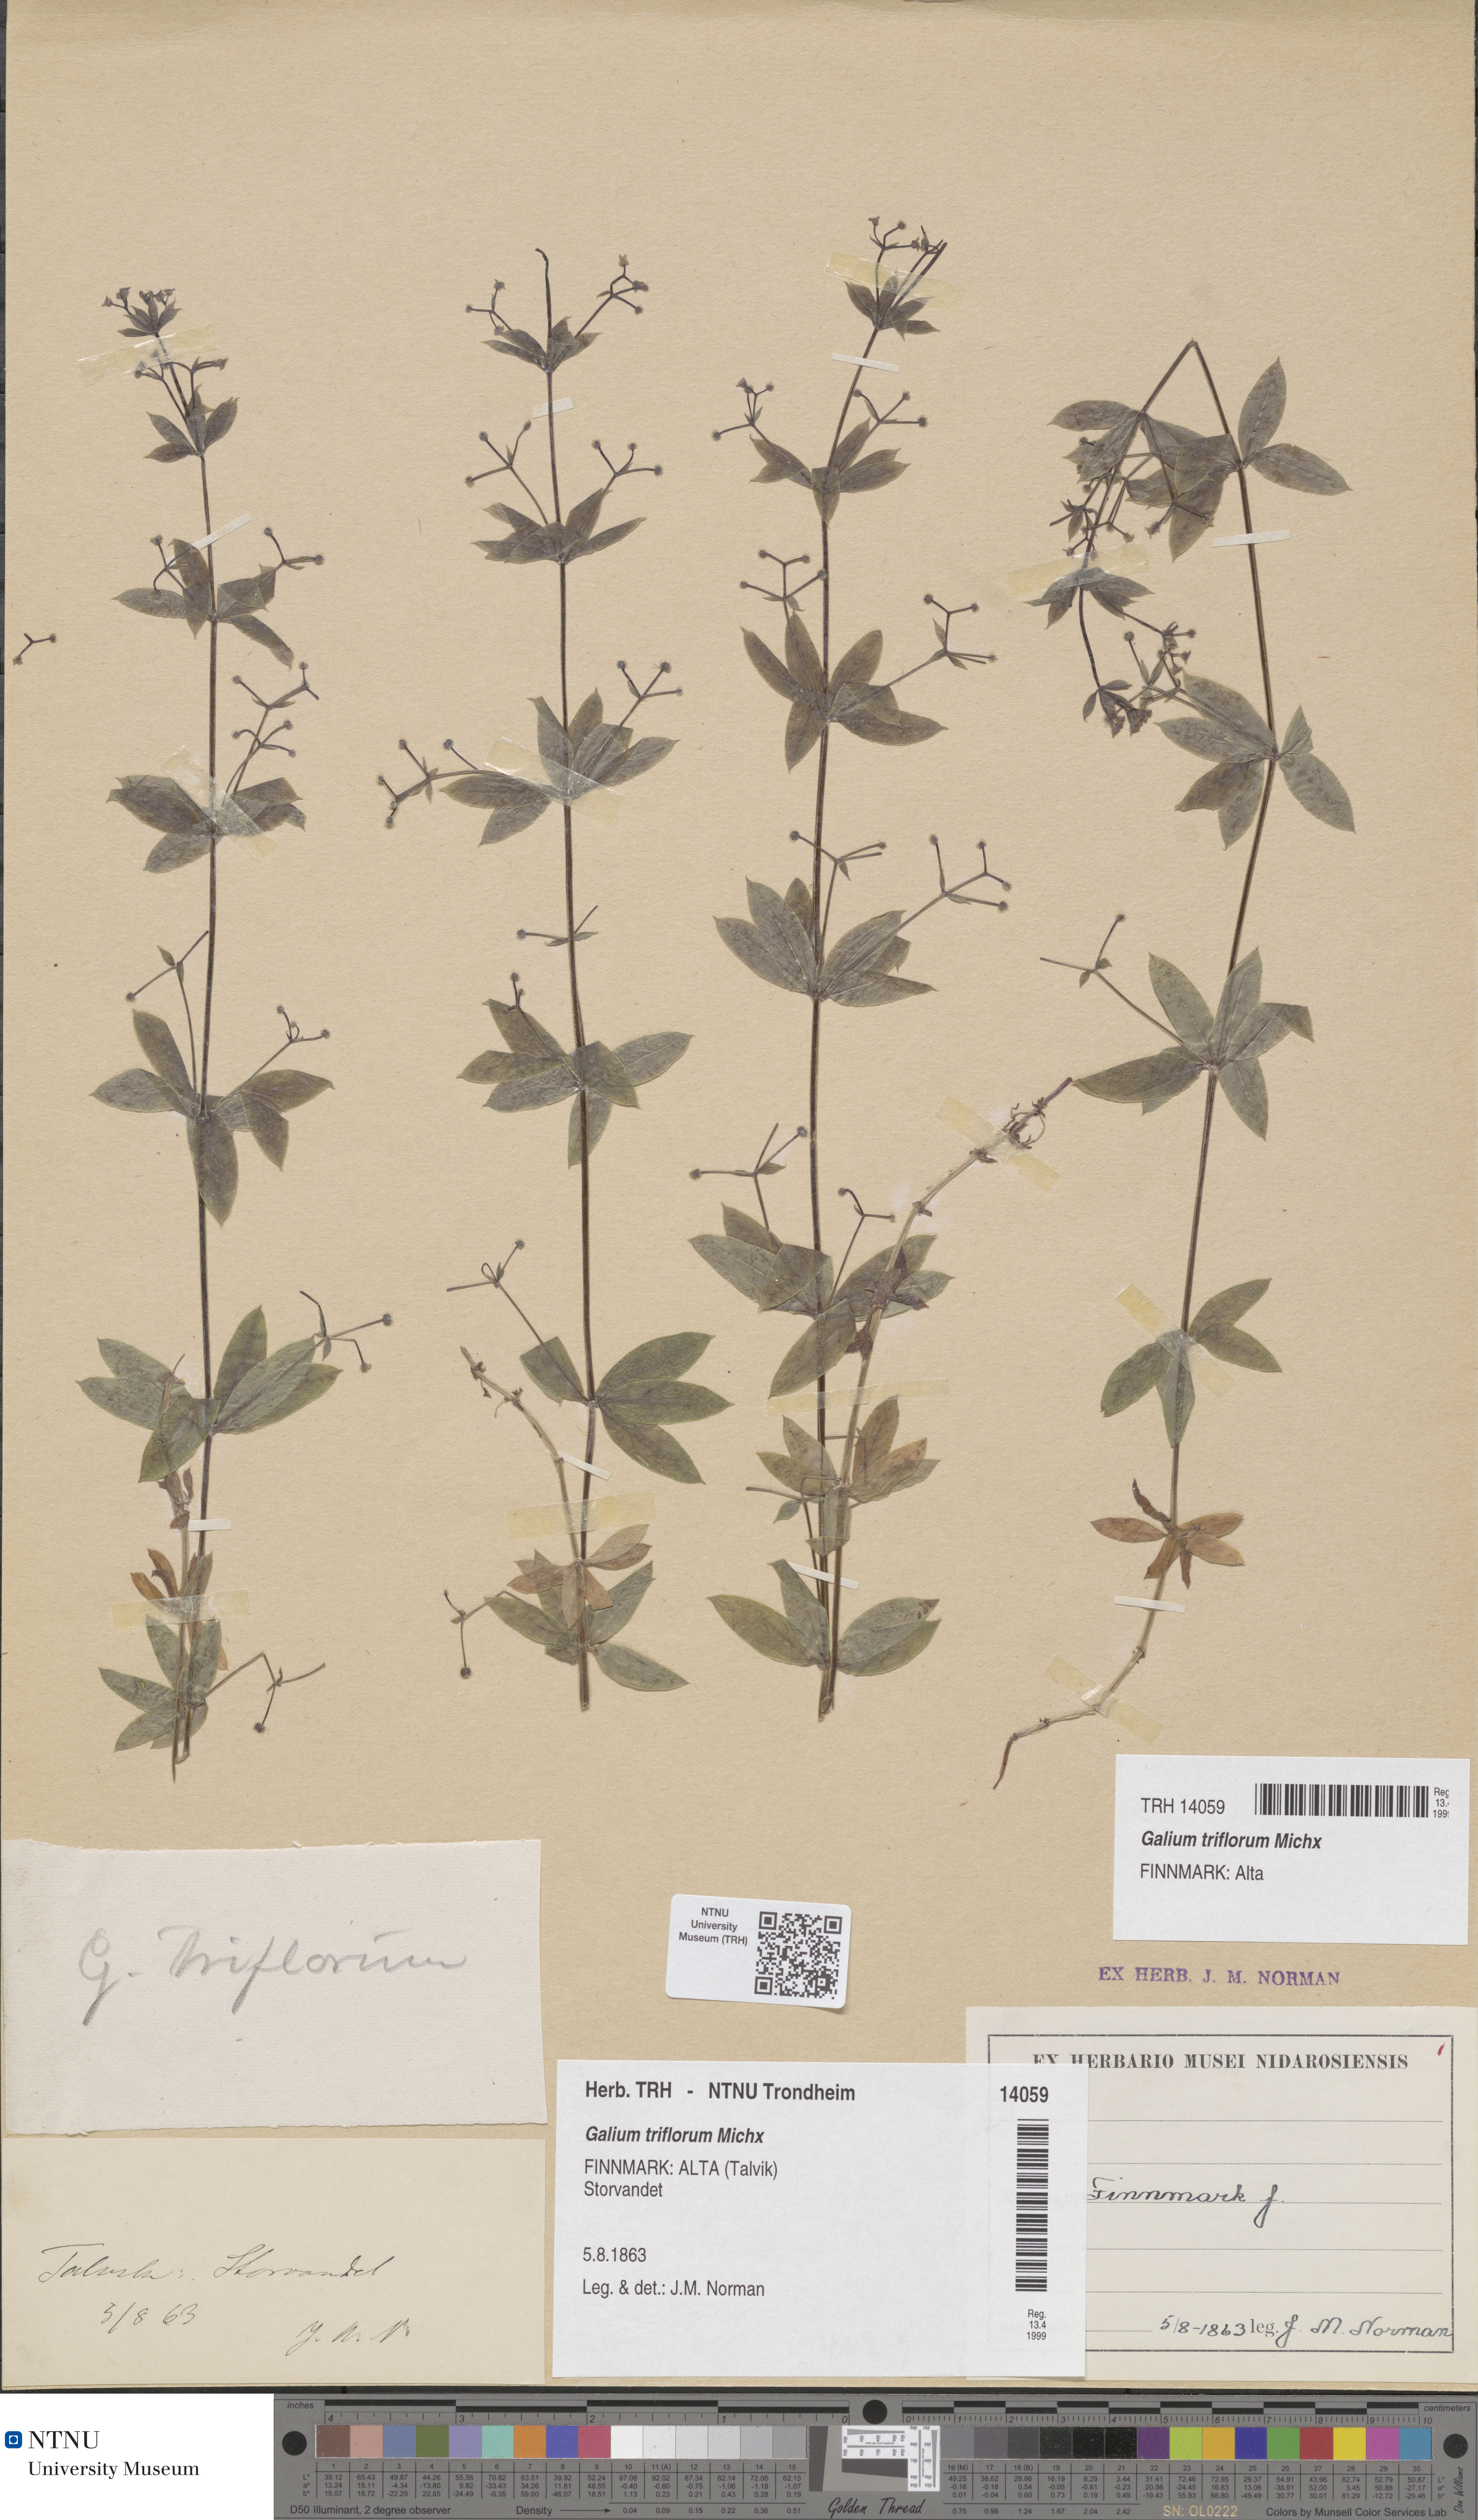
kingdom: Plantae
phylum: Tracheophyta
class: Magnoliopsida
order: Gentianales
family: Rubiaceae
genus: Galium
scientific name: Galium triflorum
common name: Fragrant bedstraw
